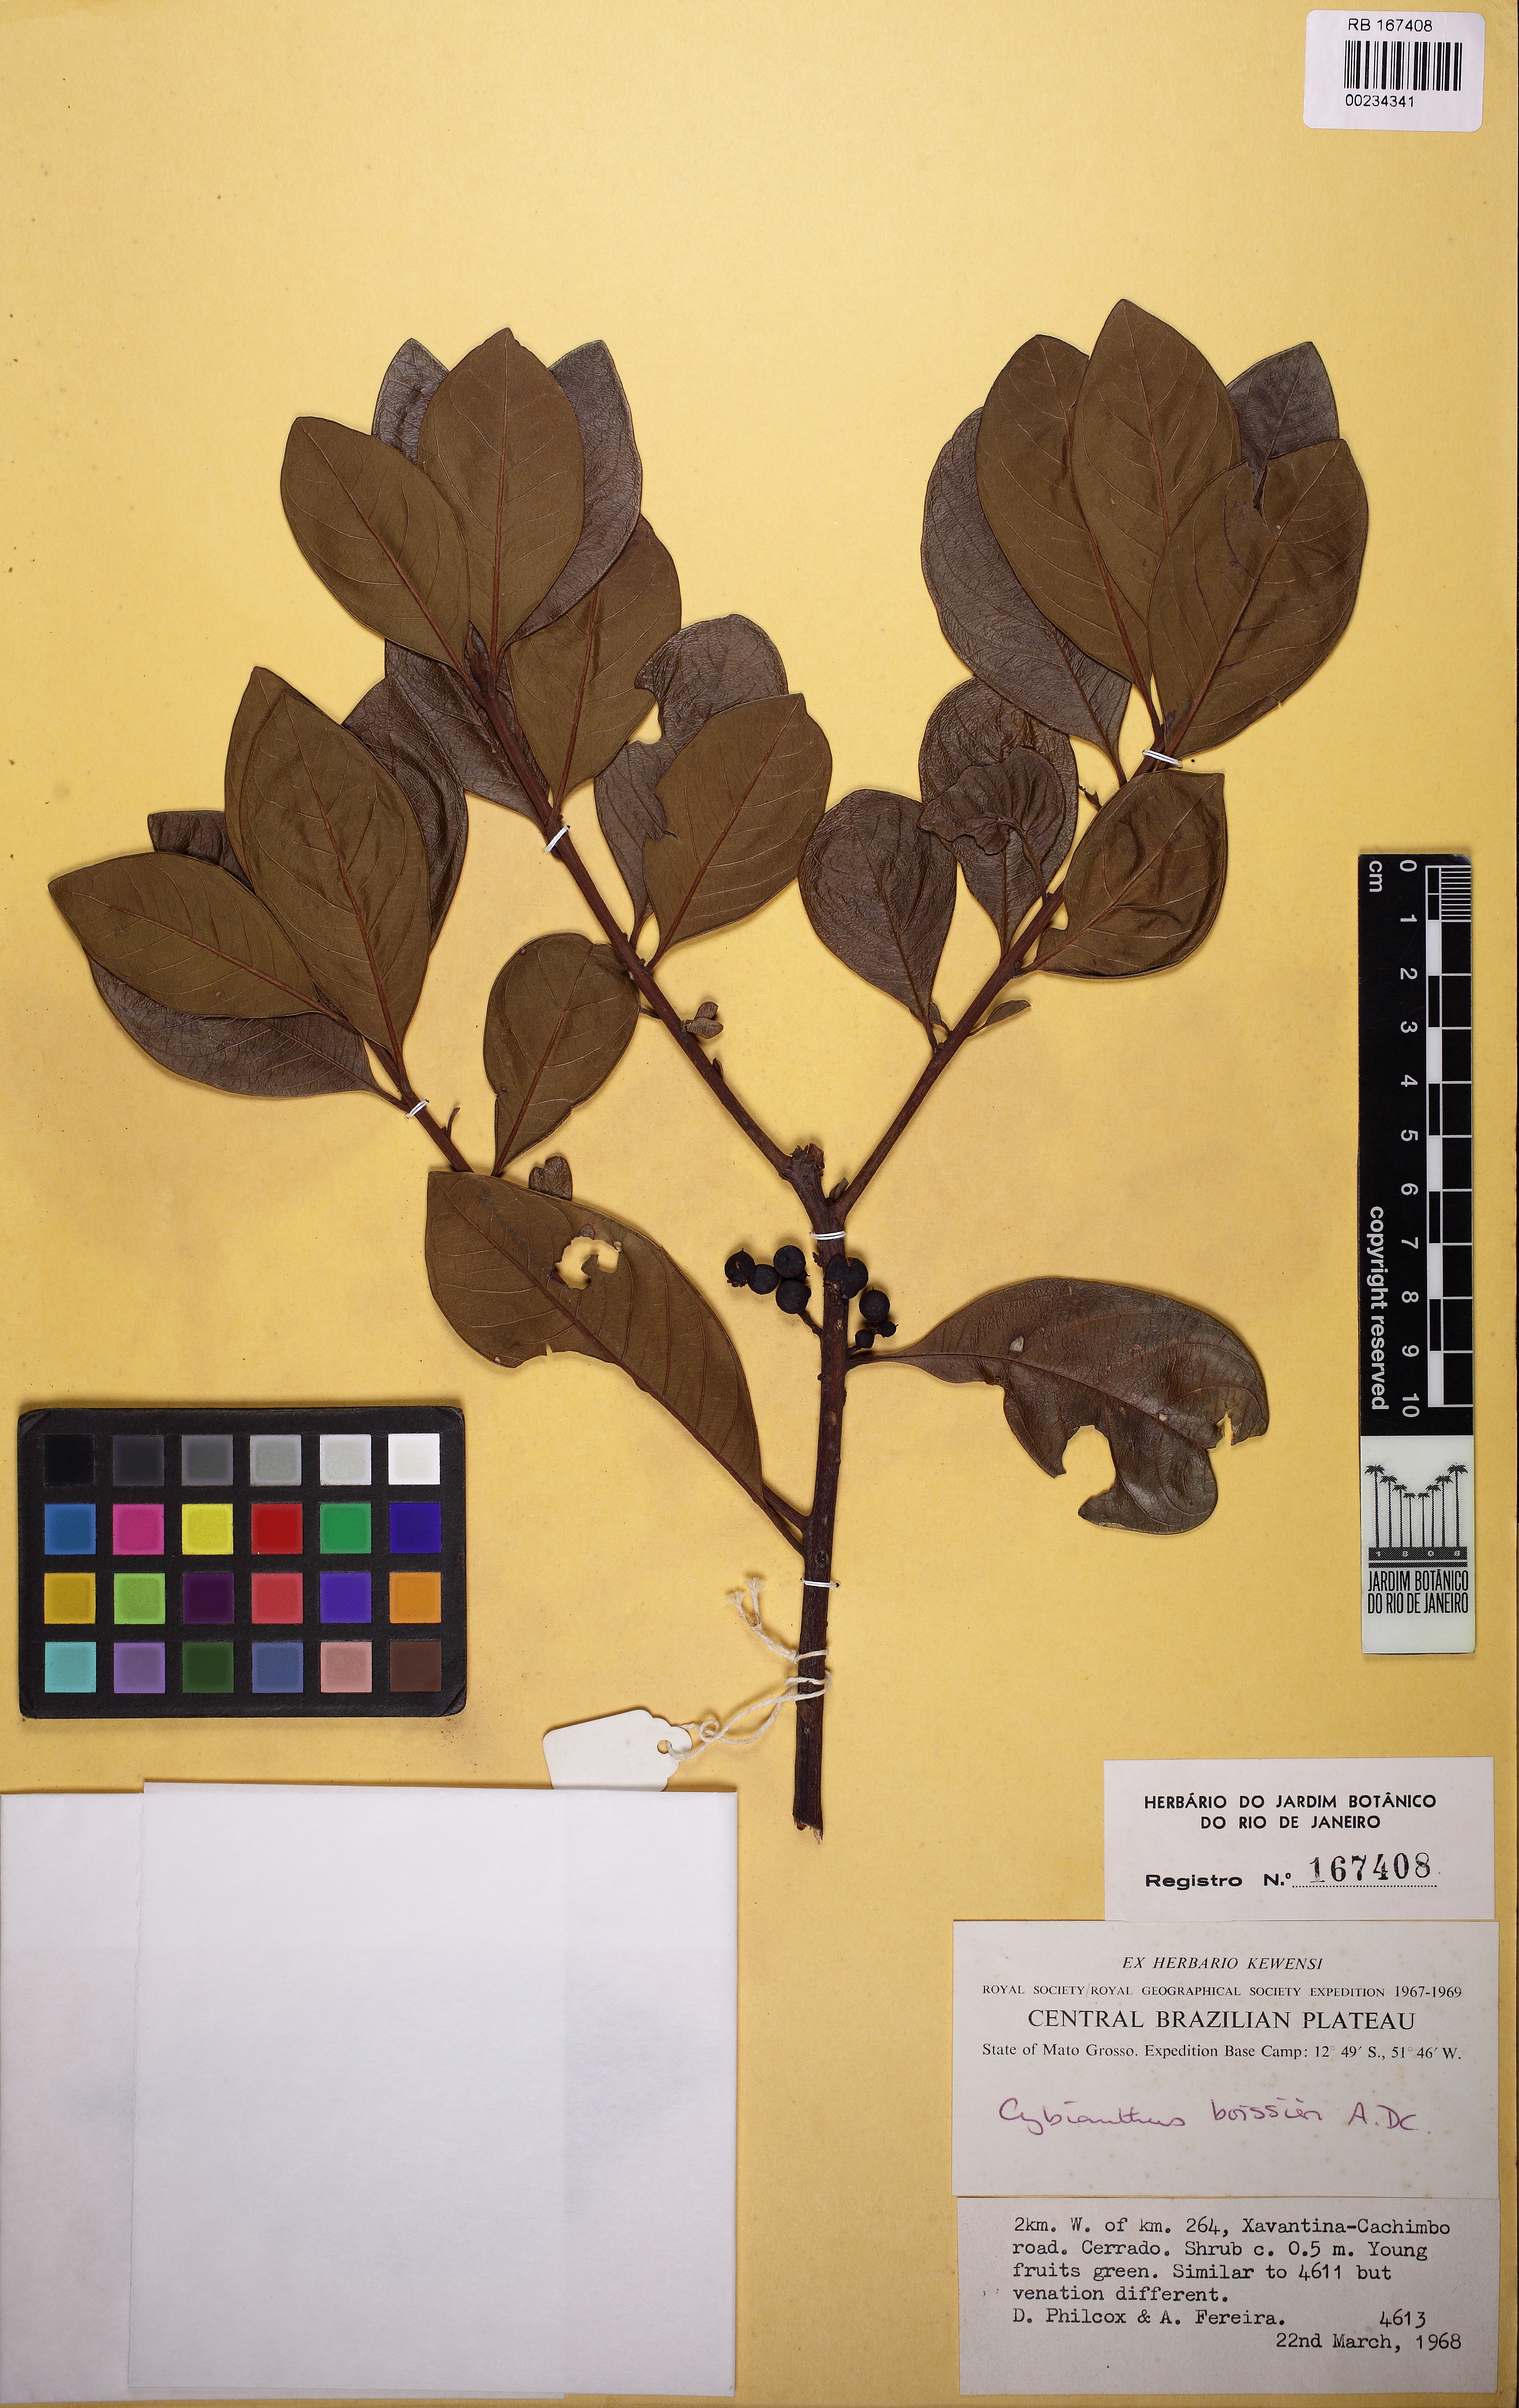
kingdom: Plantae
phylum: Tracheophyta
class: Magnoliopsida
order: Ericales
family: Primulaceae
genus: Cybianthus
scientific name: Cybianthus boissieri
